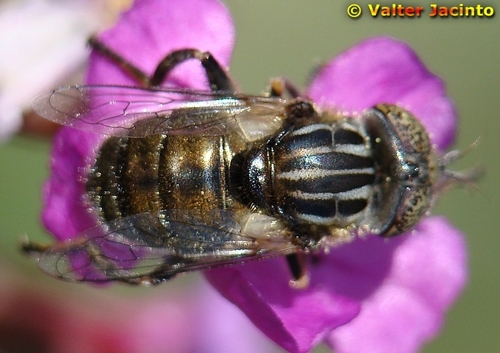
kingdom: Animalia
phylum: Arthropoda
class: Insecta
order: Diptera
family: Syrphidae
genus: Eristalinus
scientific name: Eristalinus sepulchralis
